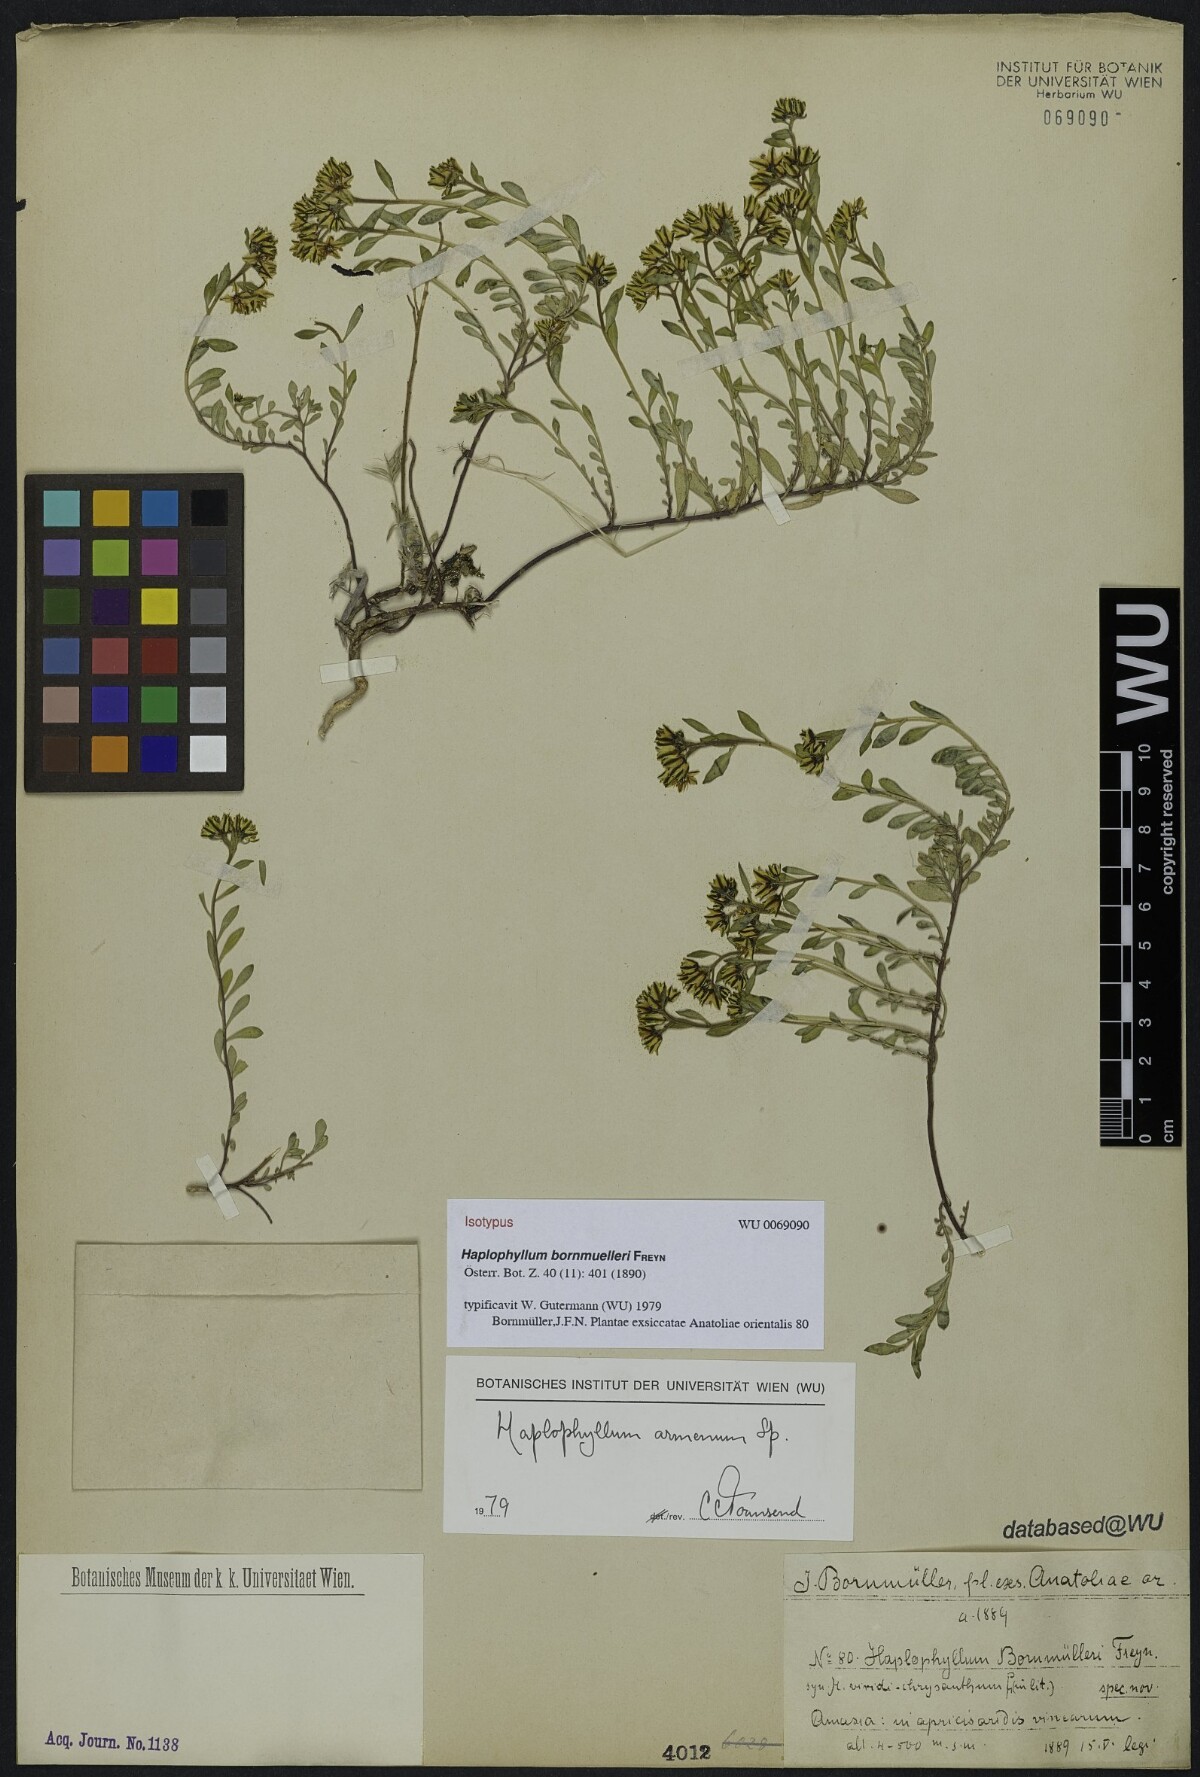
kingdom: Plantae
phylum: Tracheophyta
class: Magnoliopsida
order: Sapindales
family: Rutaceae
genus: Haplophyllum
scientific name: Haplophyllum armenum
